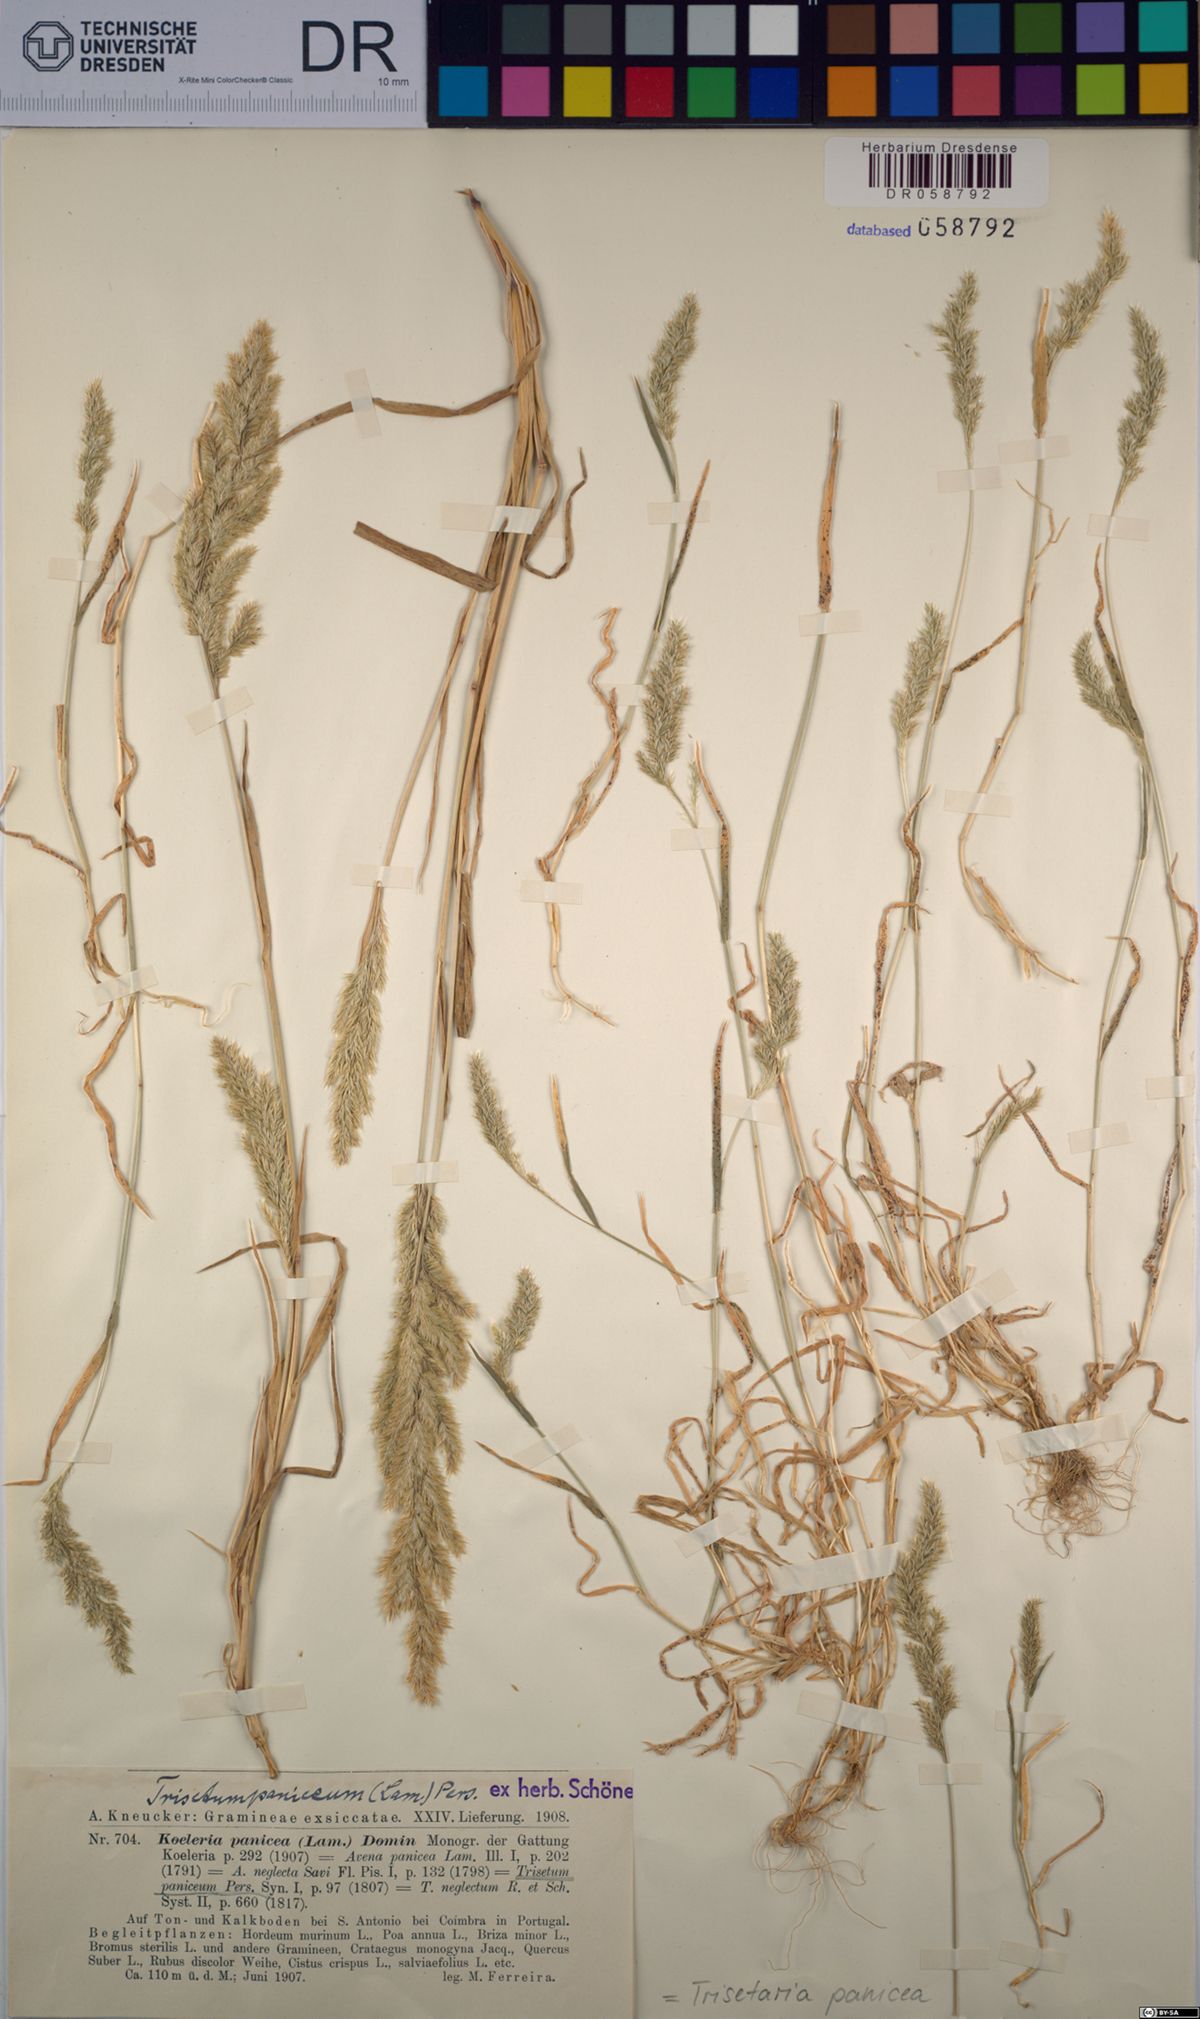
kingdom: Plantae
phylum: Tracheophyta
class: Liliopsida
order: Poales
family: Poaceae
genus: Trisetaria
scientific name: Trisetaria panicea
